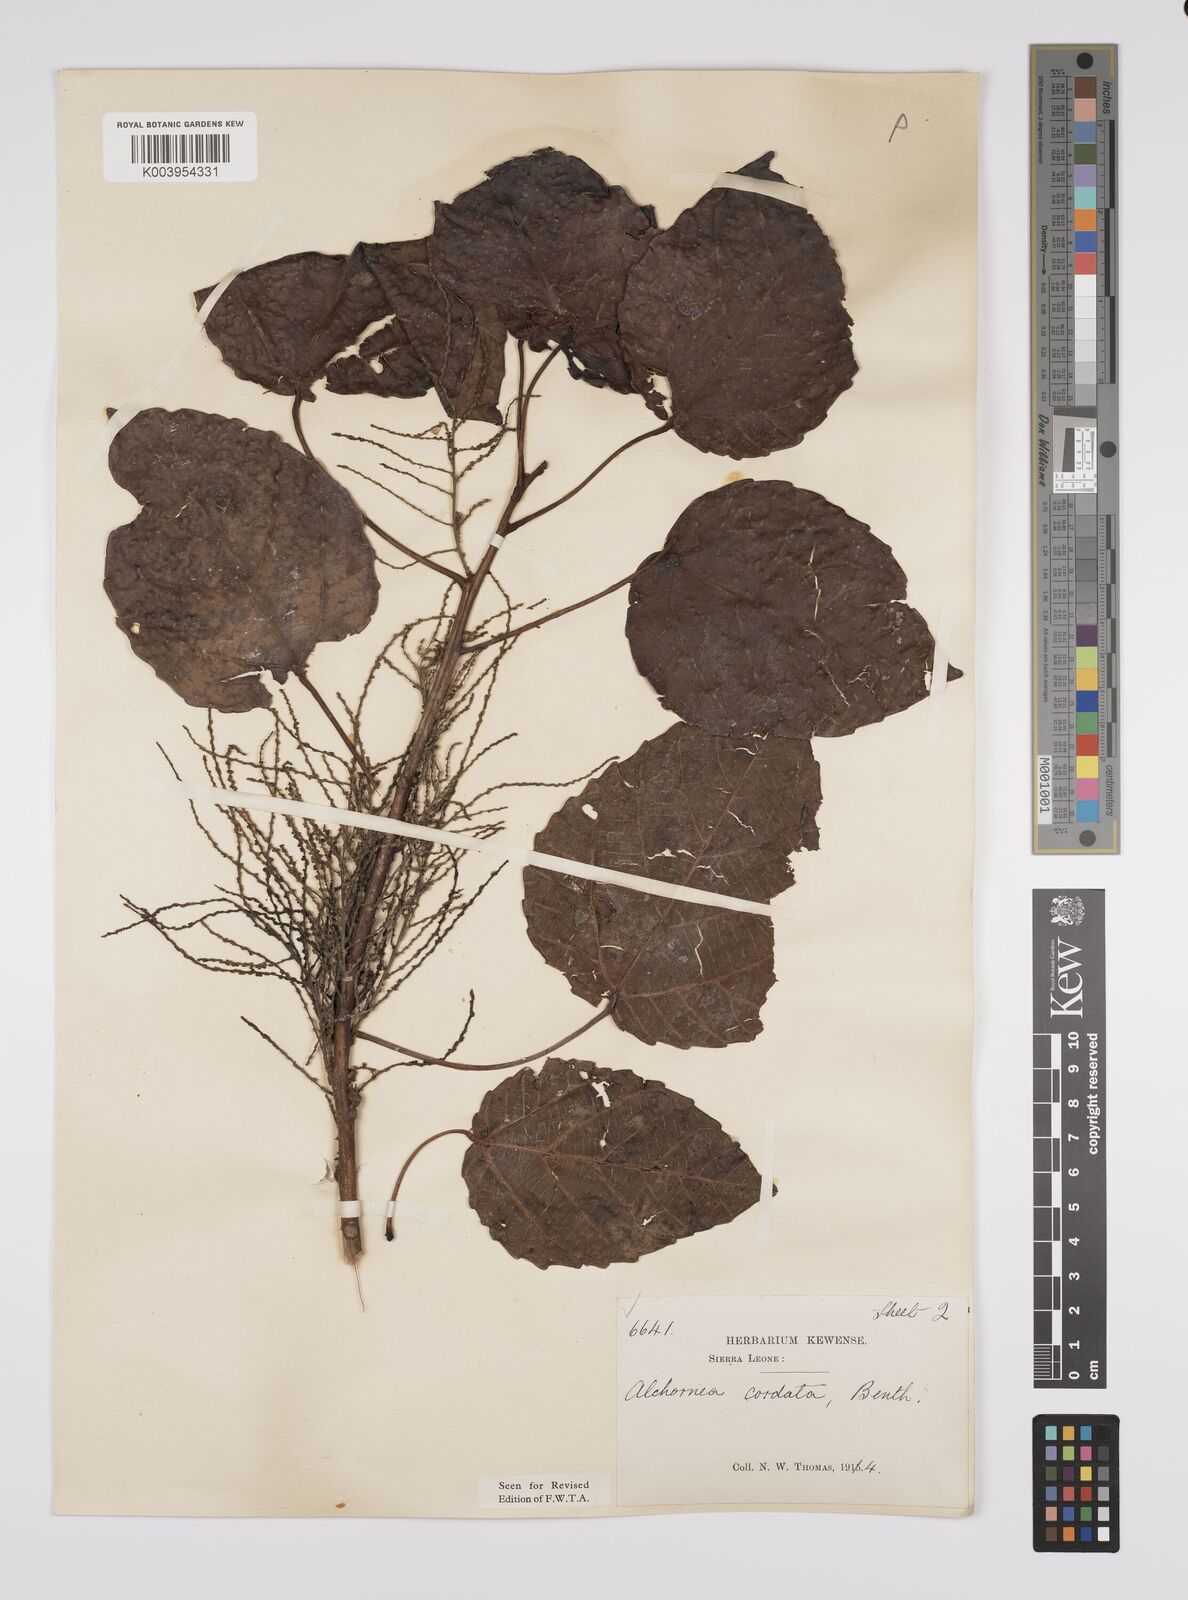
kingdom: Plantae
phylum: Tracheophyta
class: Magnoliopsida
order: Malpighiales
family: Euphorbiaceae
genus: Alchornea
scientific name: Alchornea cordifolia
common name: Christmasbush
